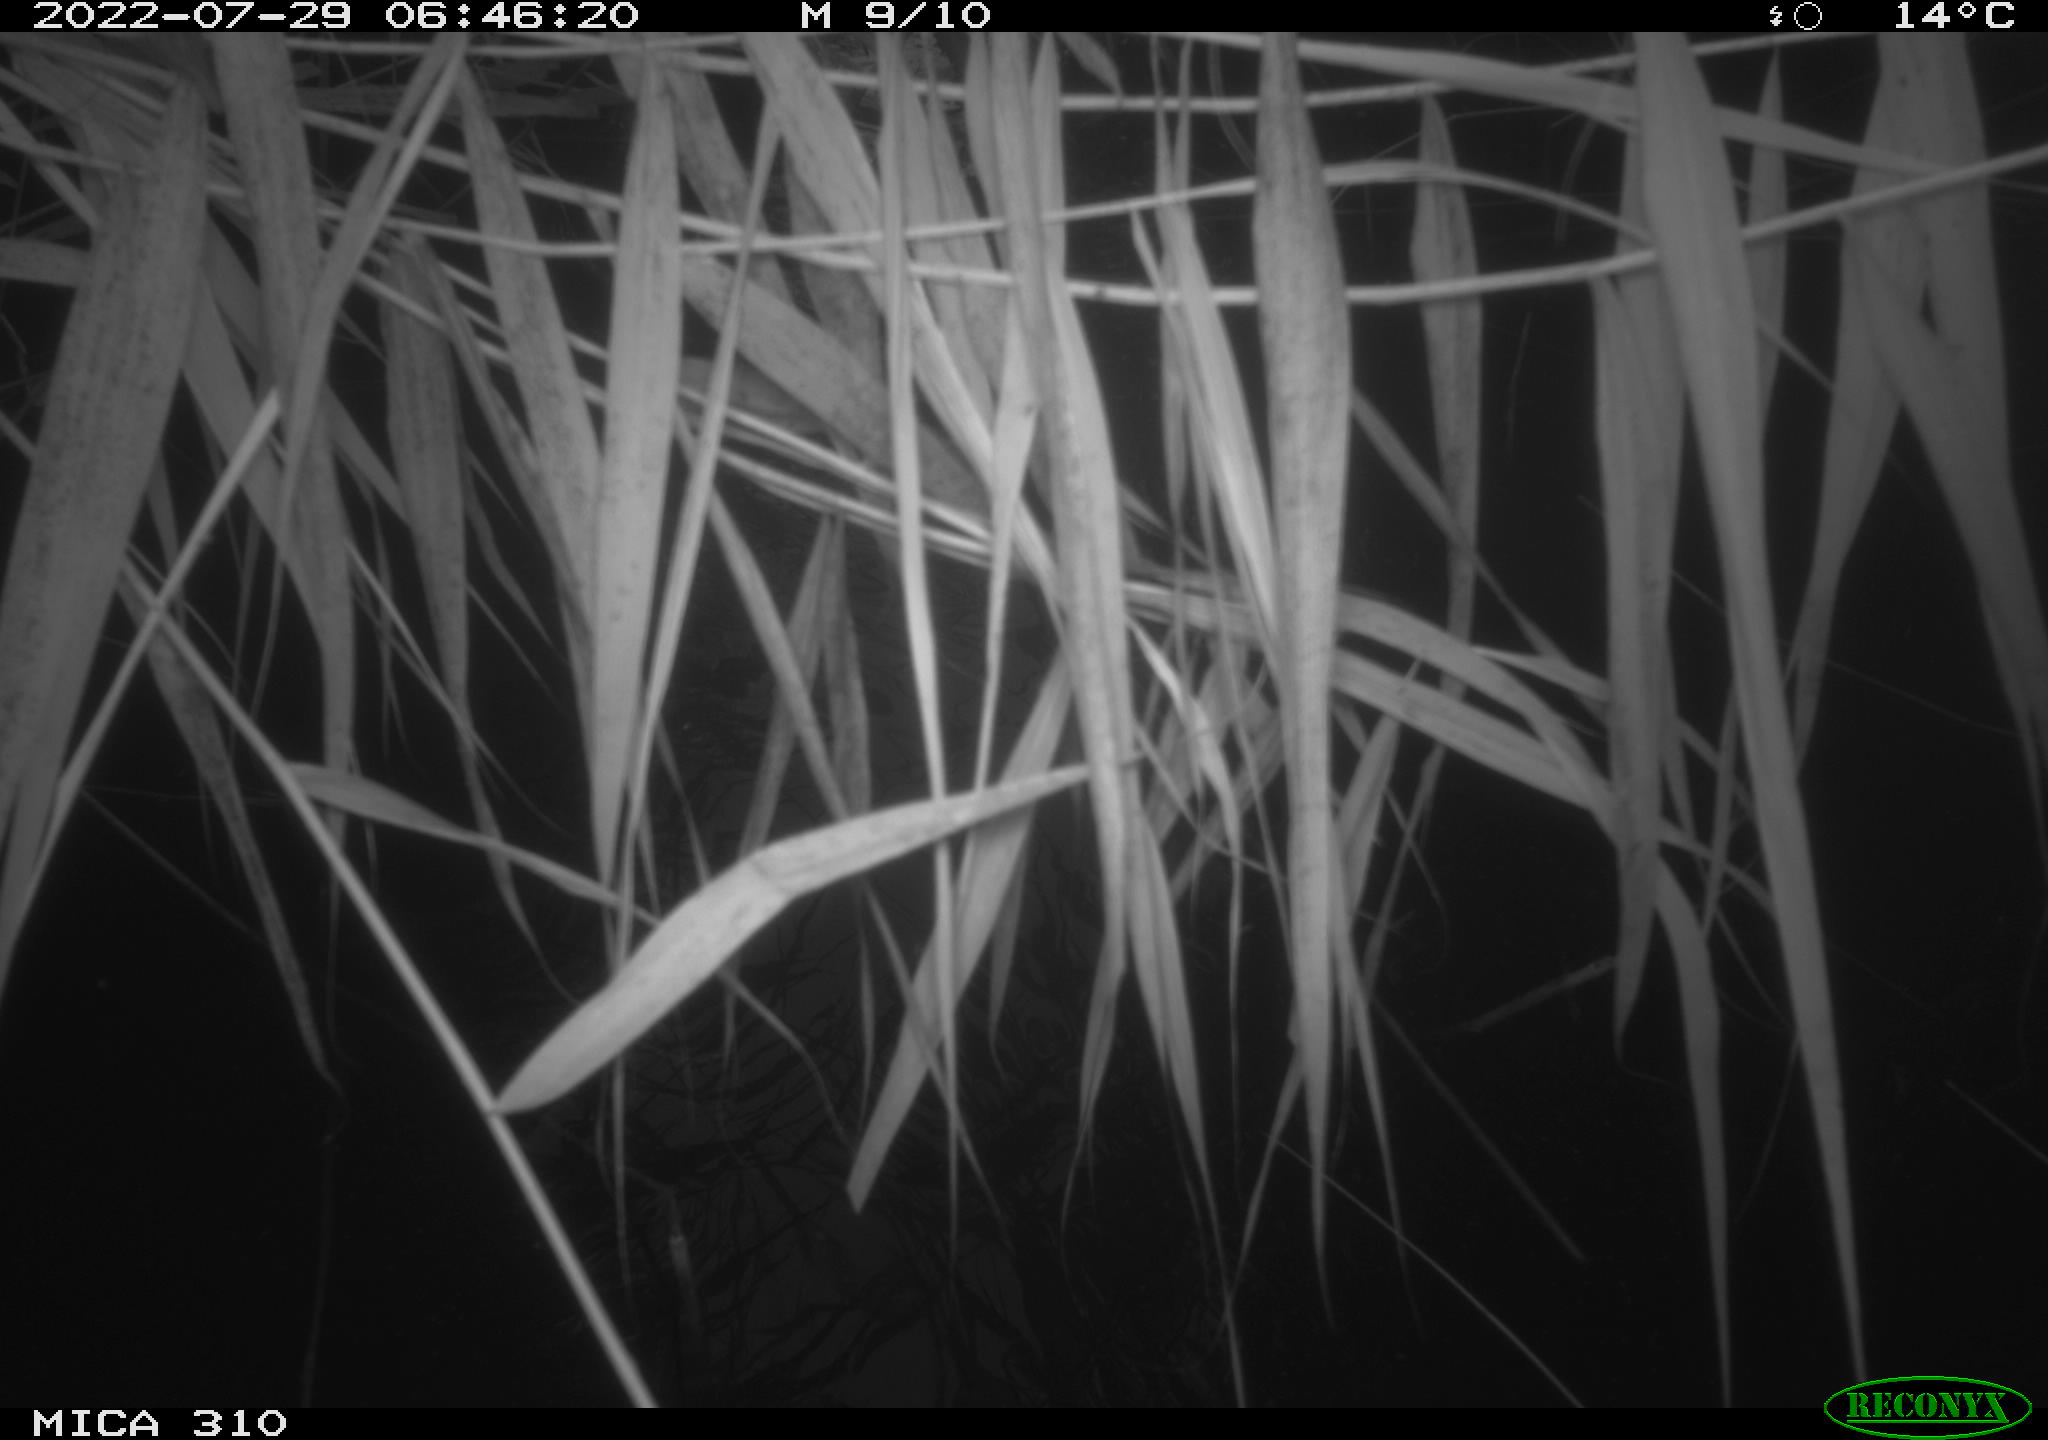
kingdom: Animalia
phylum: Chordata
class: Aves
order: Anseriformes
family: Anatidae
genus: Anas
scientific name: Anas platyrhynchos
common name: Mallard
